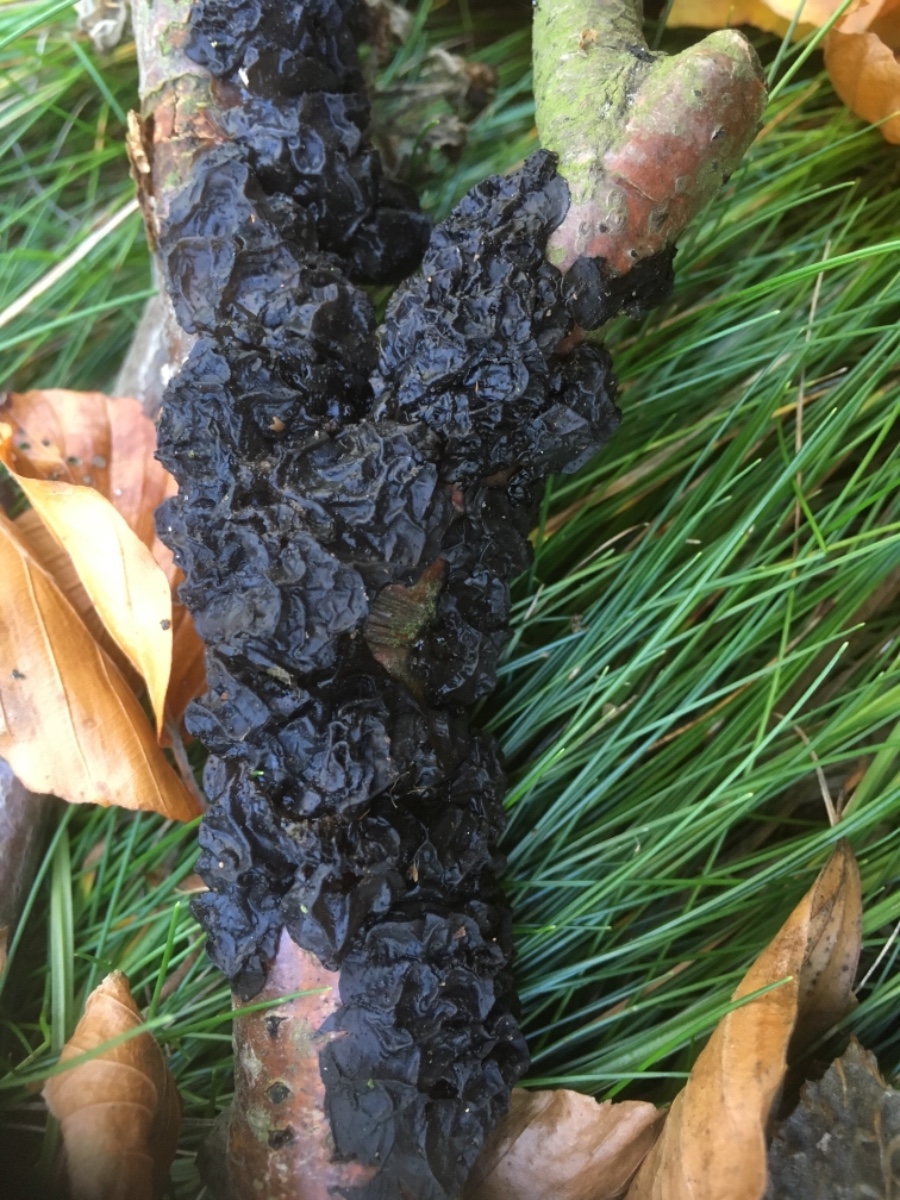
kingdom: Fungi
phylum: Basidiomycota
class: Agaricomycetes
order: Auriculariales
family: Auriculariaceae
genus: Exidia
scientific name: Exidia nigricans
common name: almindelig bævretop
